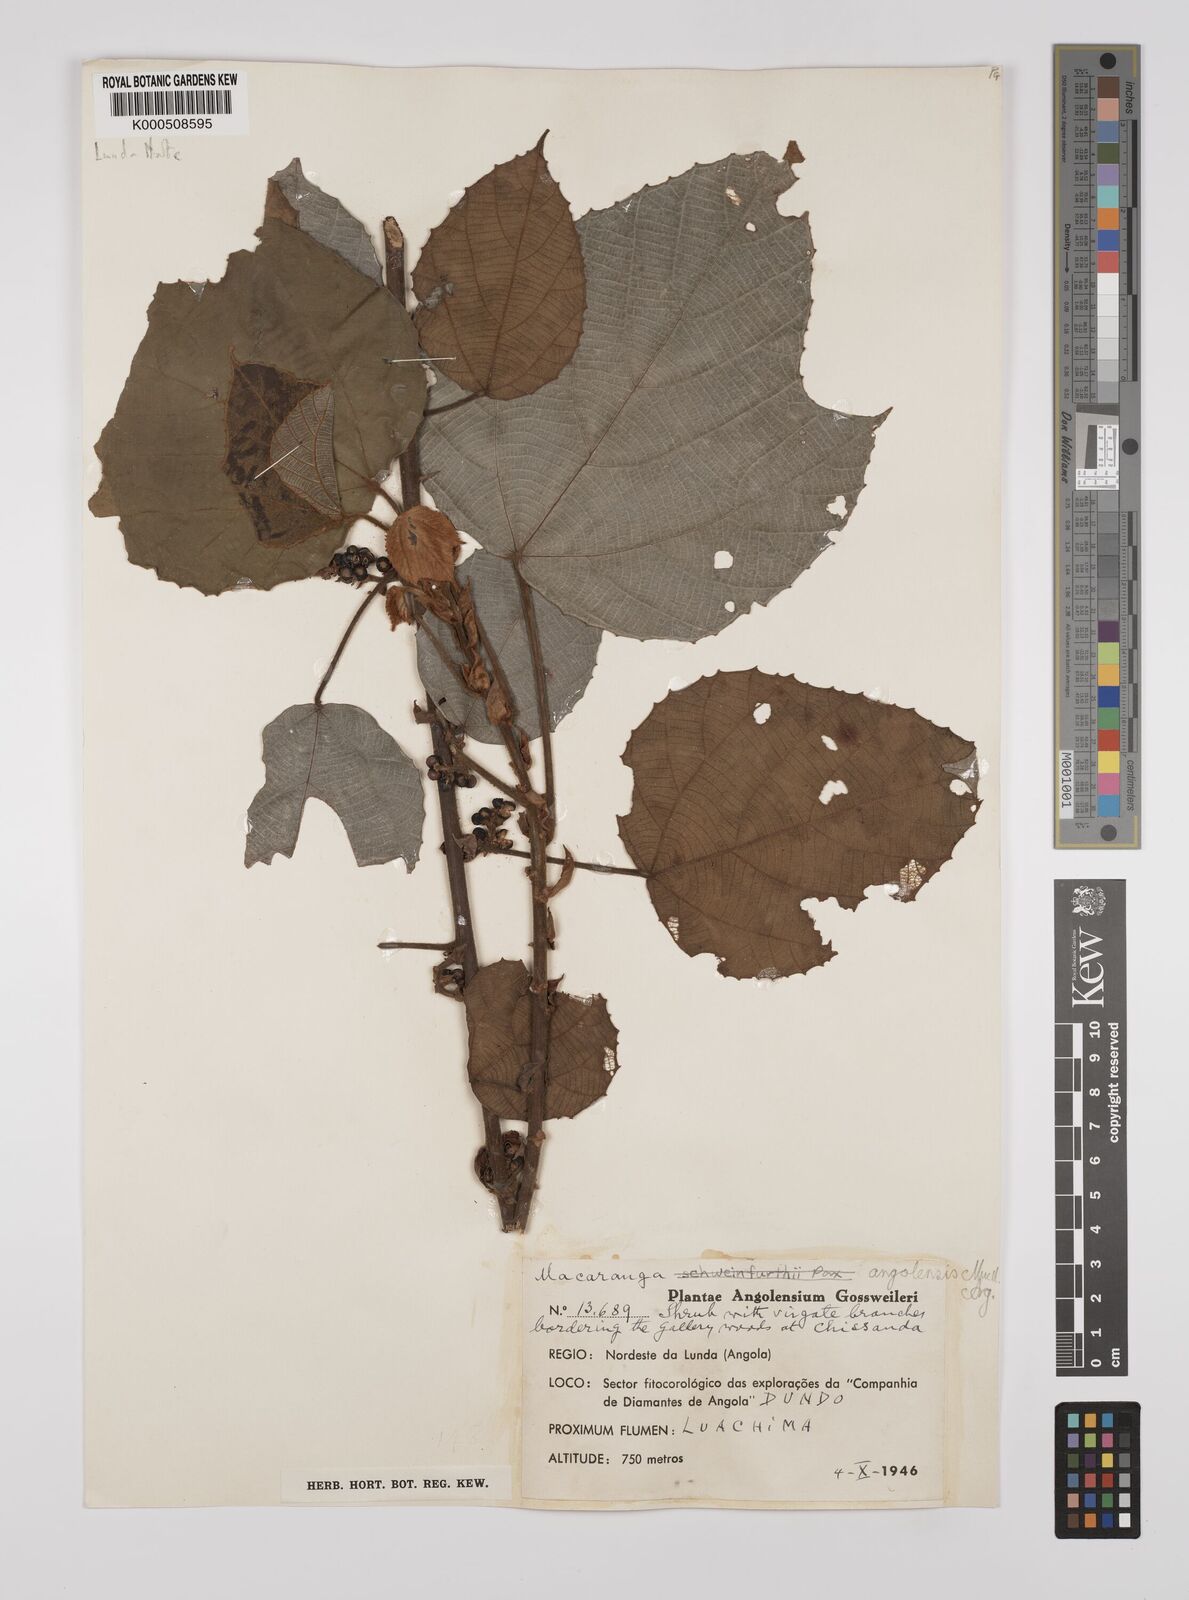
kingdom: Plantae
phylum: Tracheophyta
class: Magnoliopsida
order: Malpighiales
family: Euphorbiaceae
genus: Macaranga
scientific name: Macaranga
